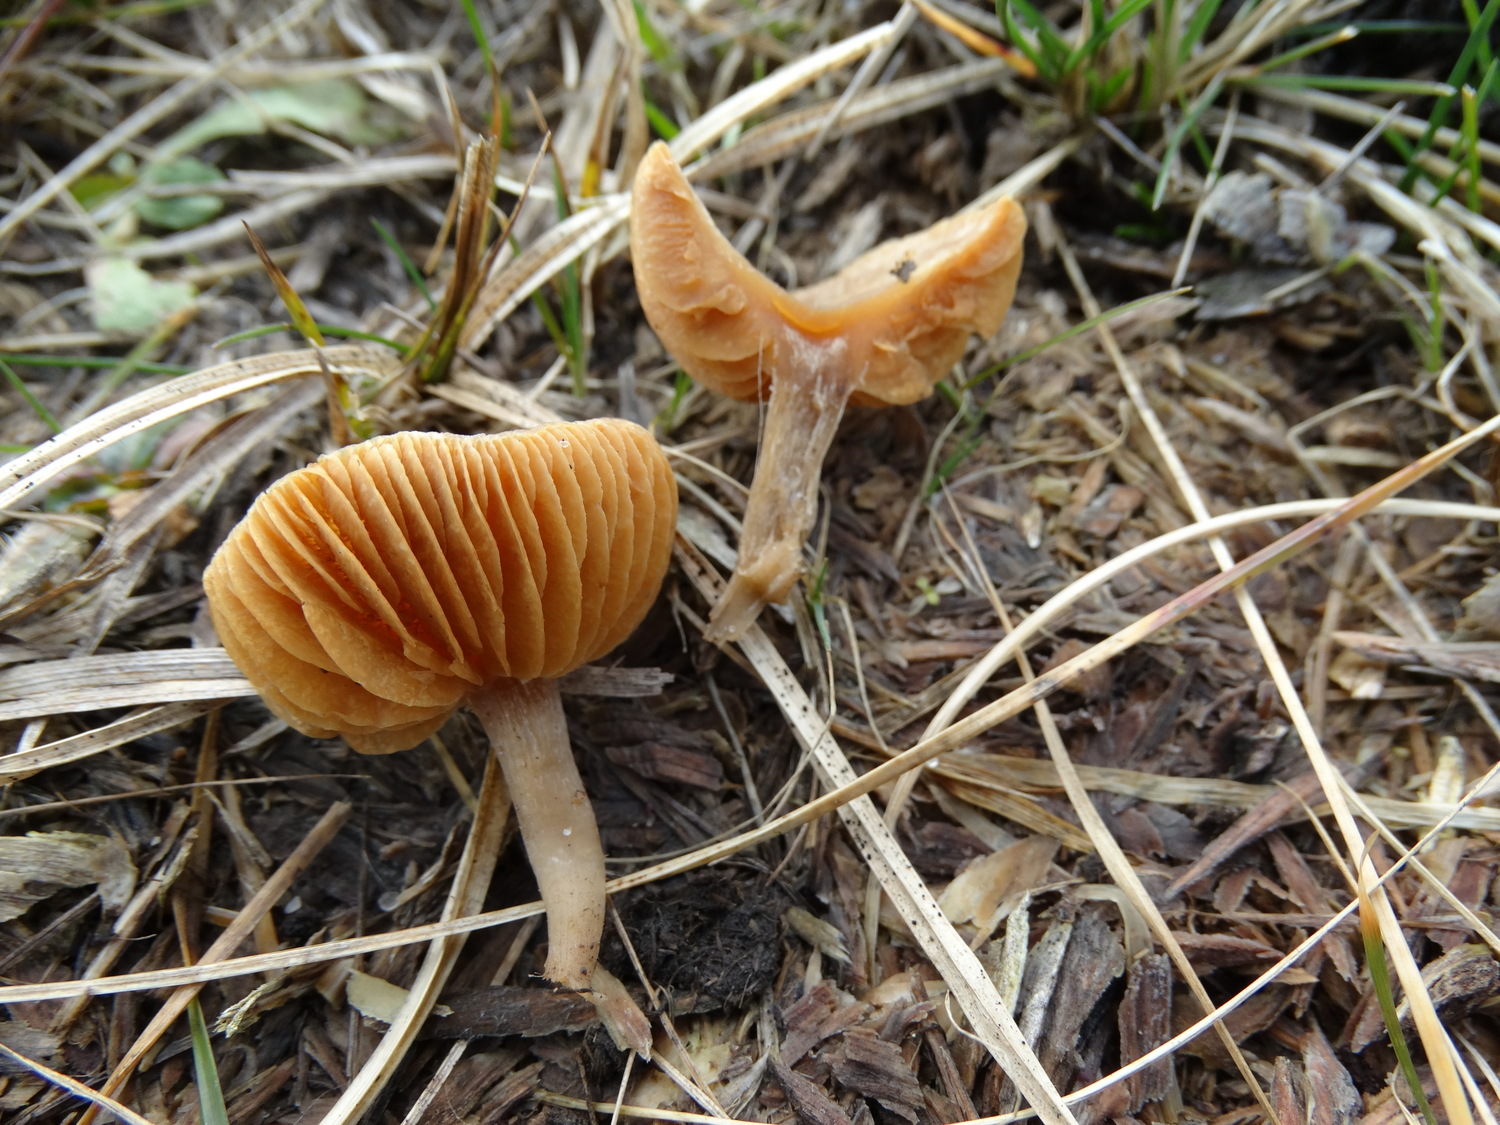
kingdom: Fungi
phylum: Basidiomycota
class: Agaricomycetes
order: Agaricales
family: Tubariaceae
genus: Tubaria
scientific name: Tubaria furfuracea
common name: kliddet fnughat
